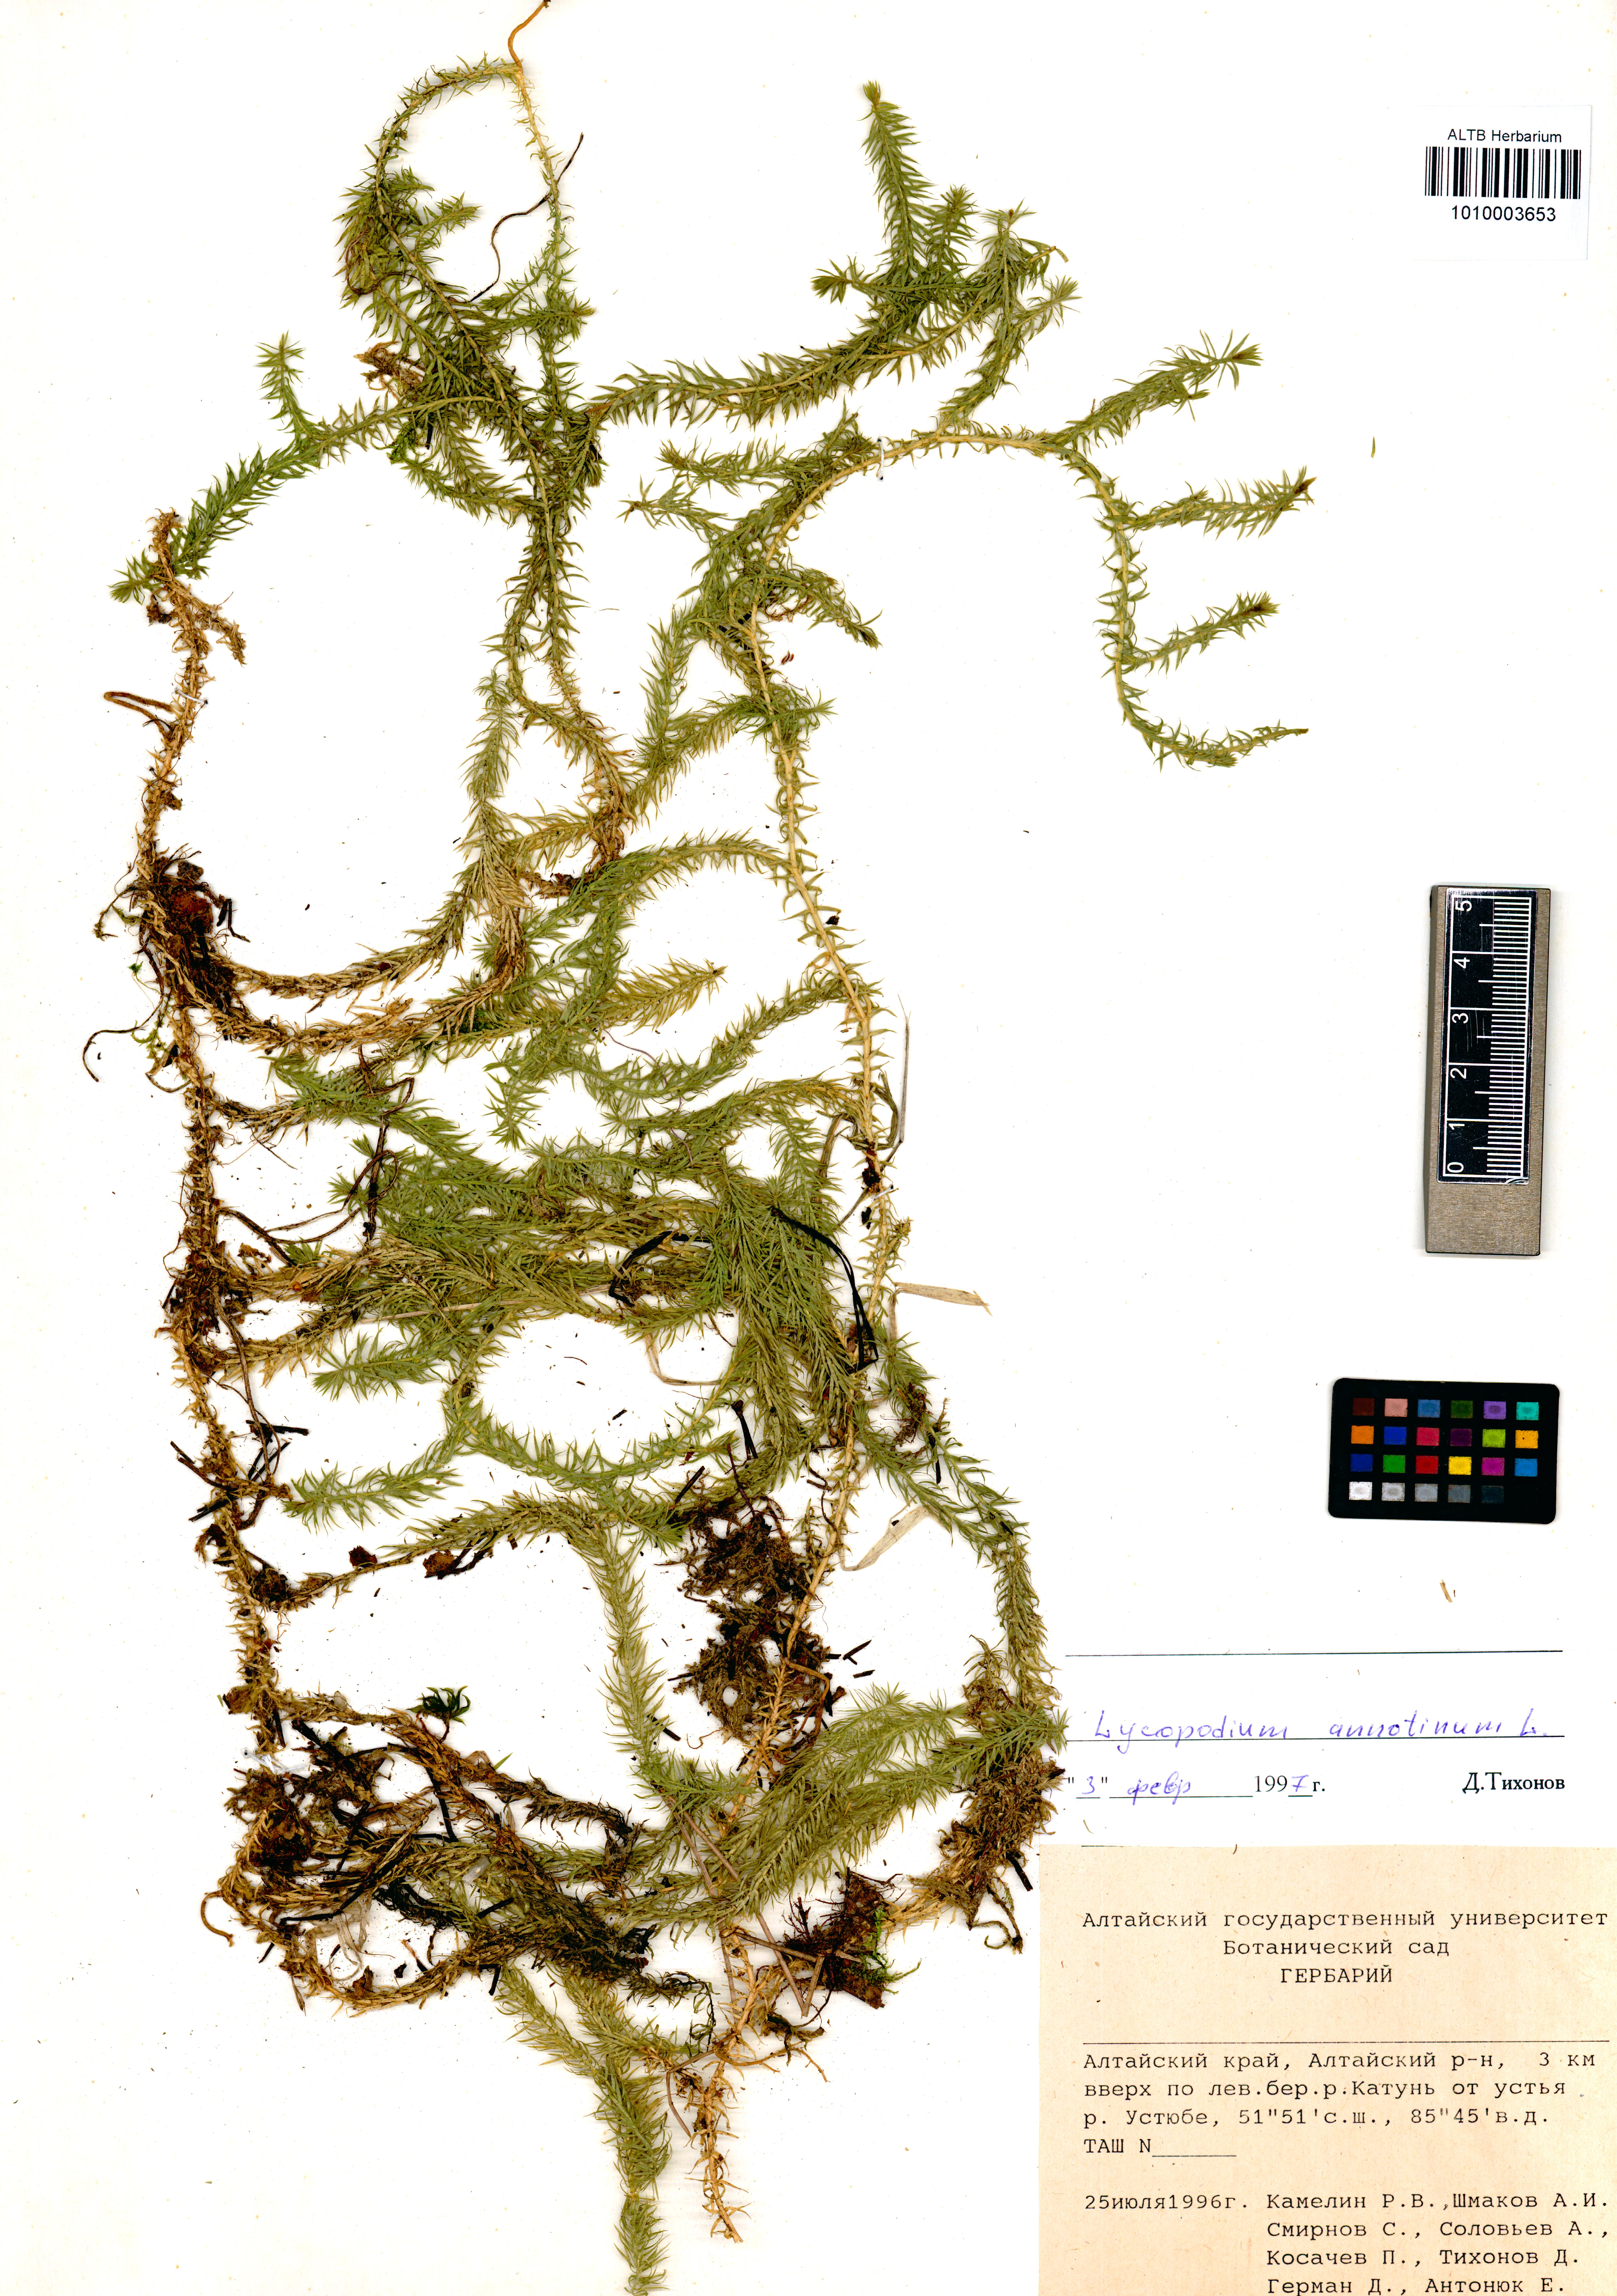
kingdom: Plantae
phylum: Tracheophyta
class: Lycopodiopsida
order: Lycopodiales
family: Lycopodiaceae
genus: Spinulum
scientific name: Spinulum annotinum
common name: Interrupted club-moss
